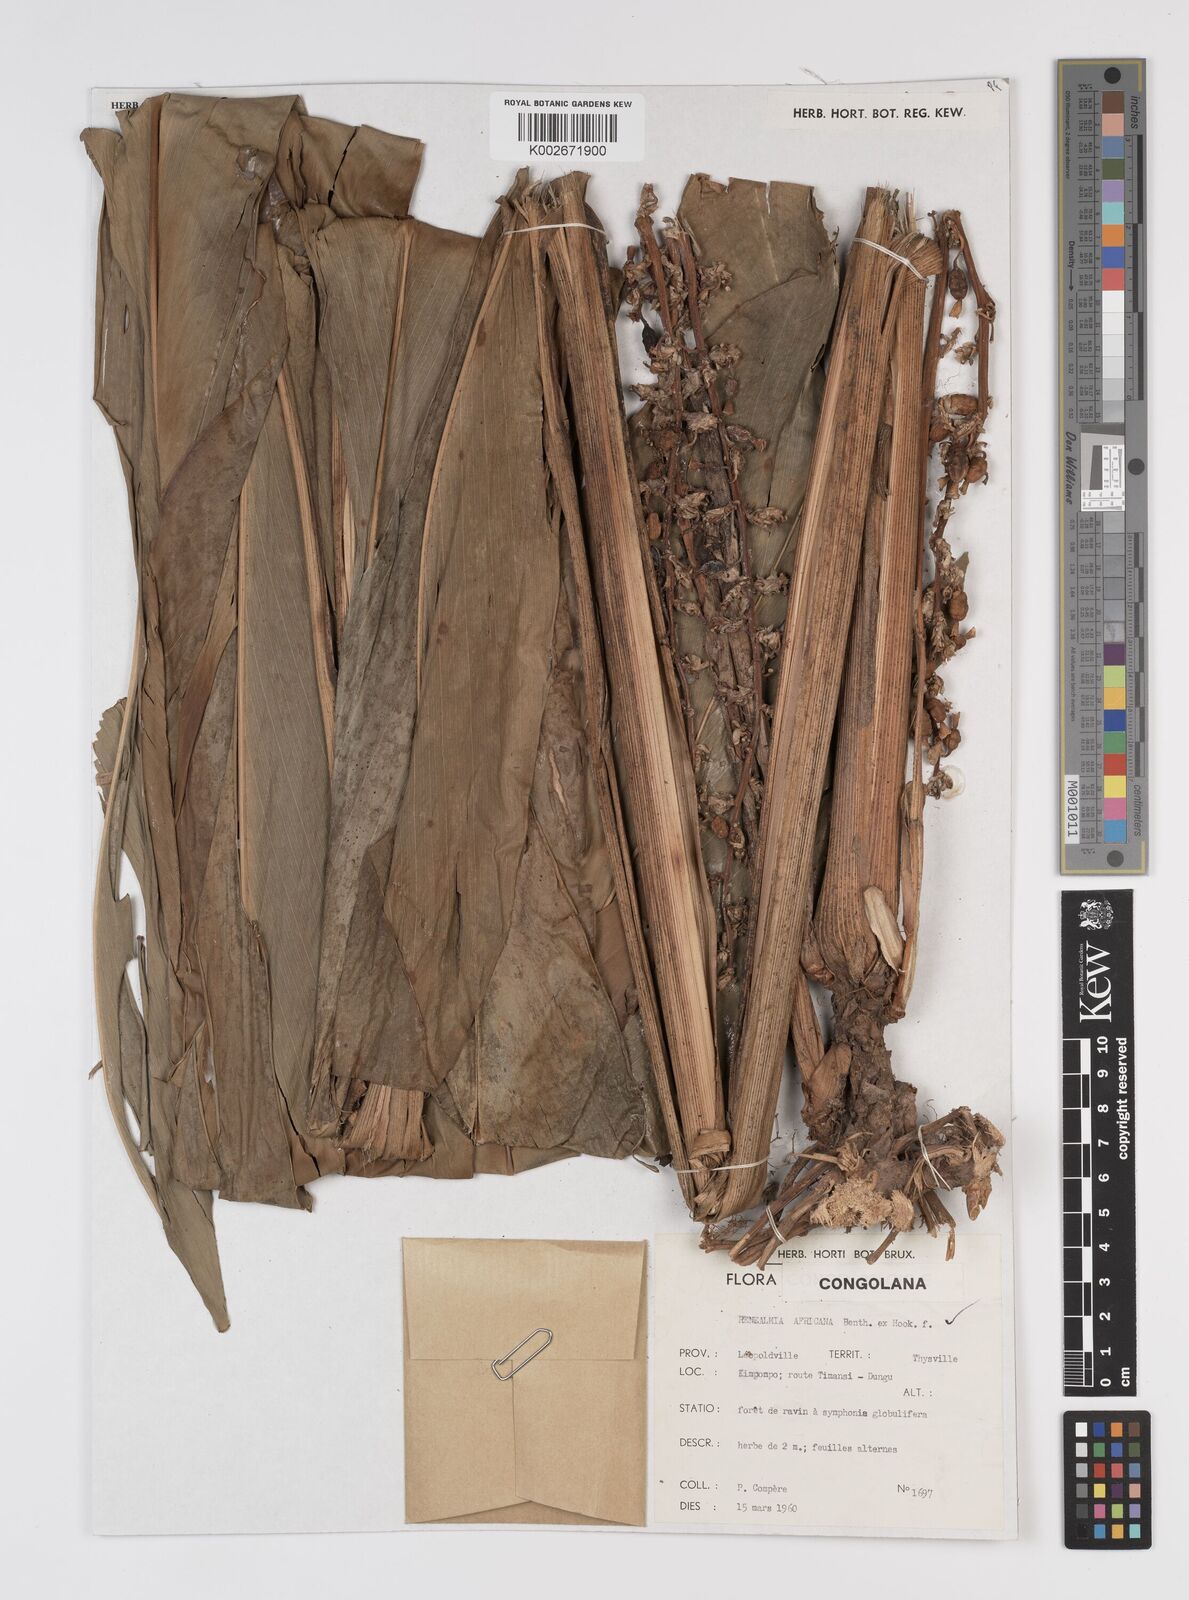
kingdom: Plantae
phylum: Tracheophyta
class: Liliopsida
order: Zingiberales
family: Zingiberaceae
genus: Renealmia
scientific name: Renealmia africana
